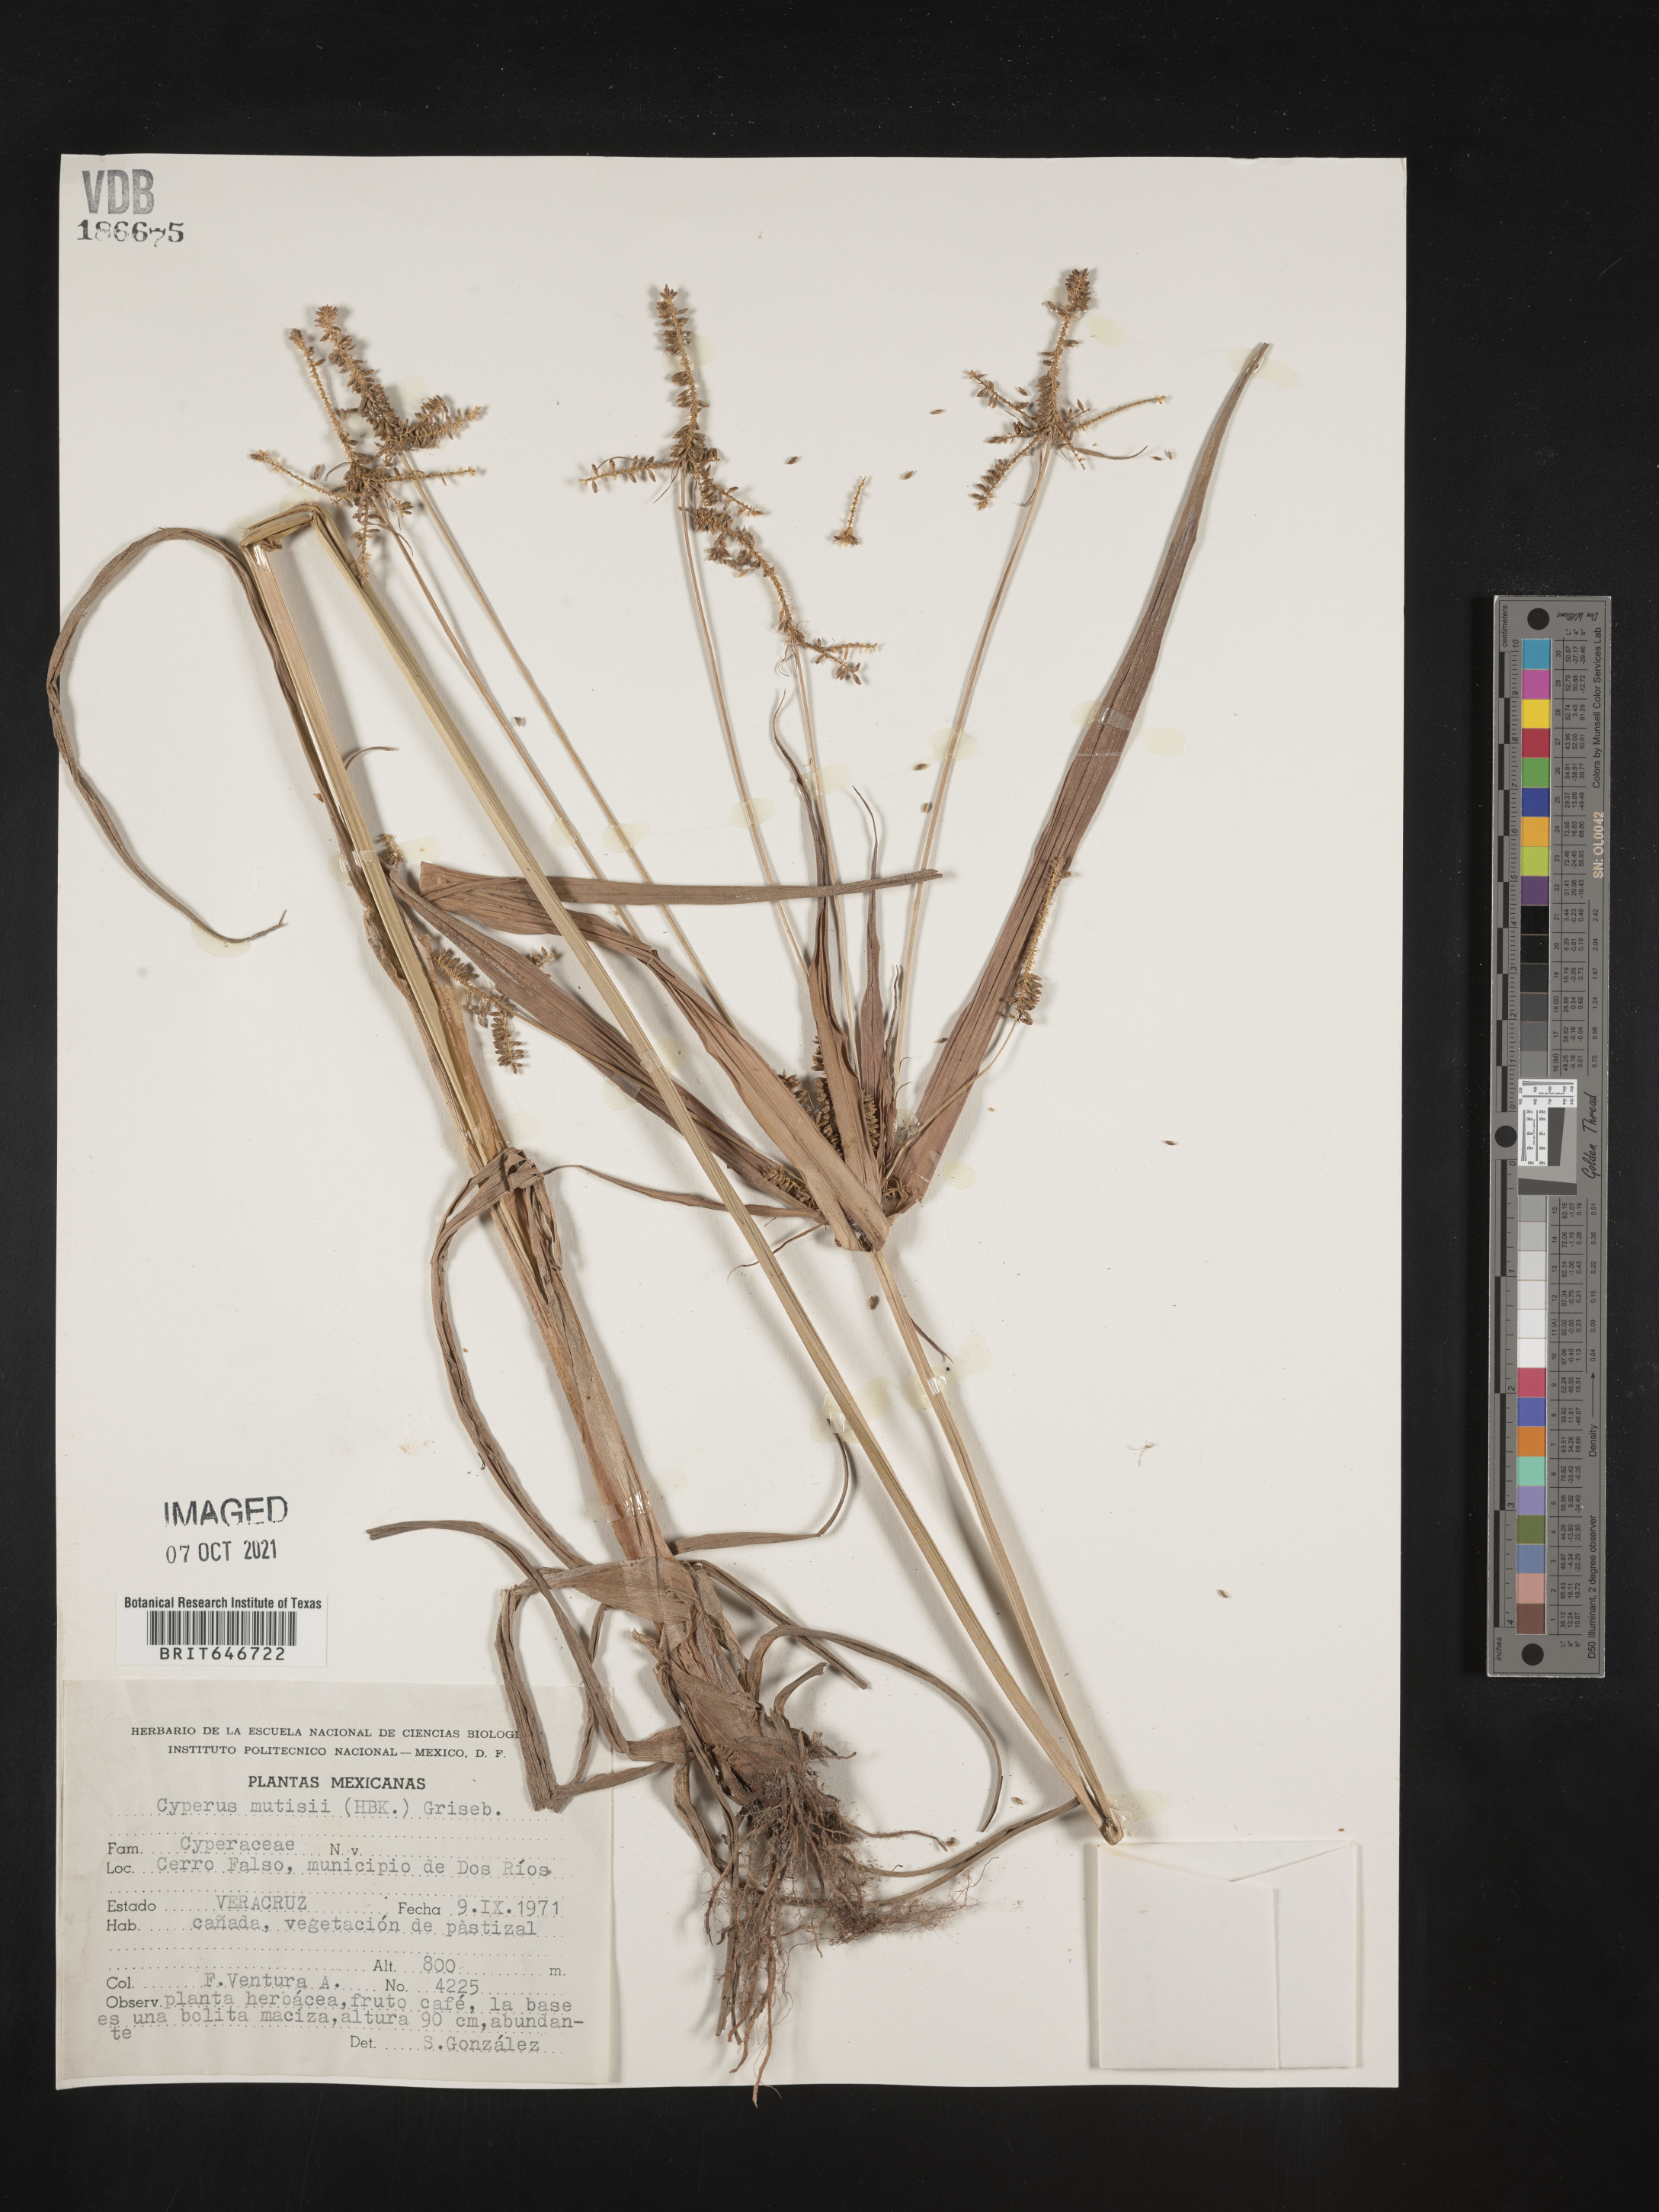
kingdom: Plantae
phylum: Tracheophyta
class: Liliopsida
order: Poales
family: Cyperaceae
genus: Cyperus
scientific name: Cyperus
